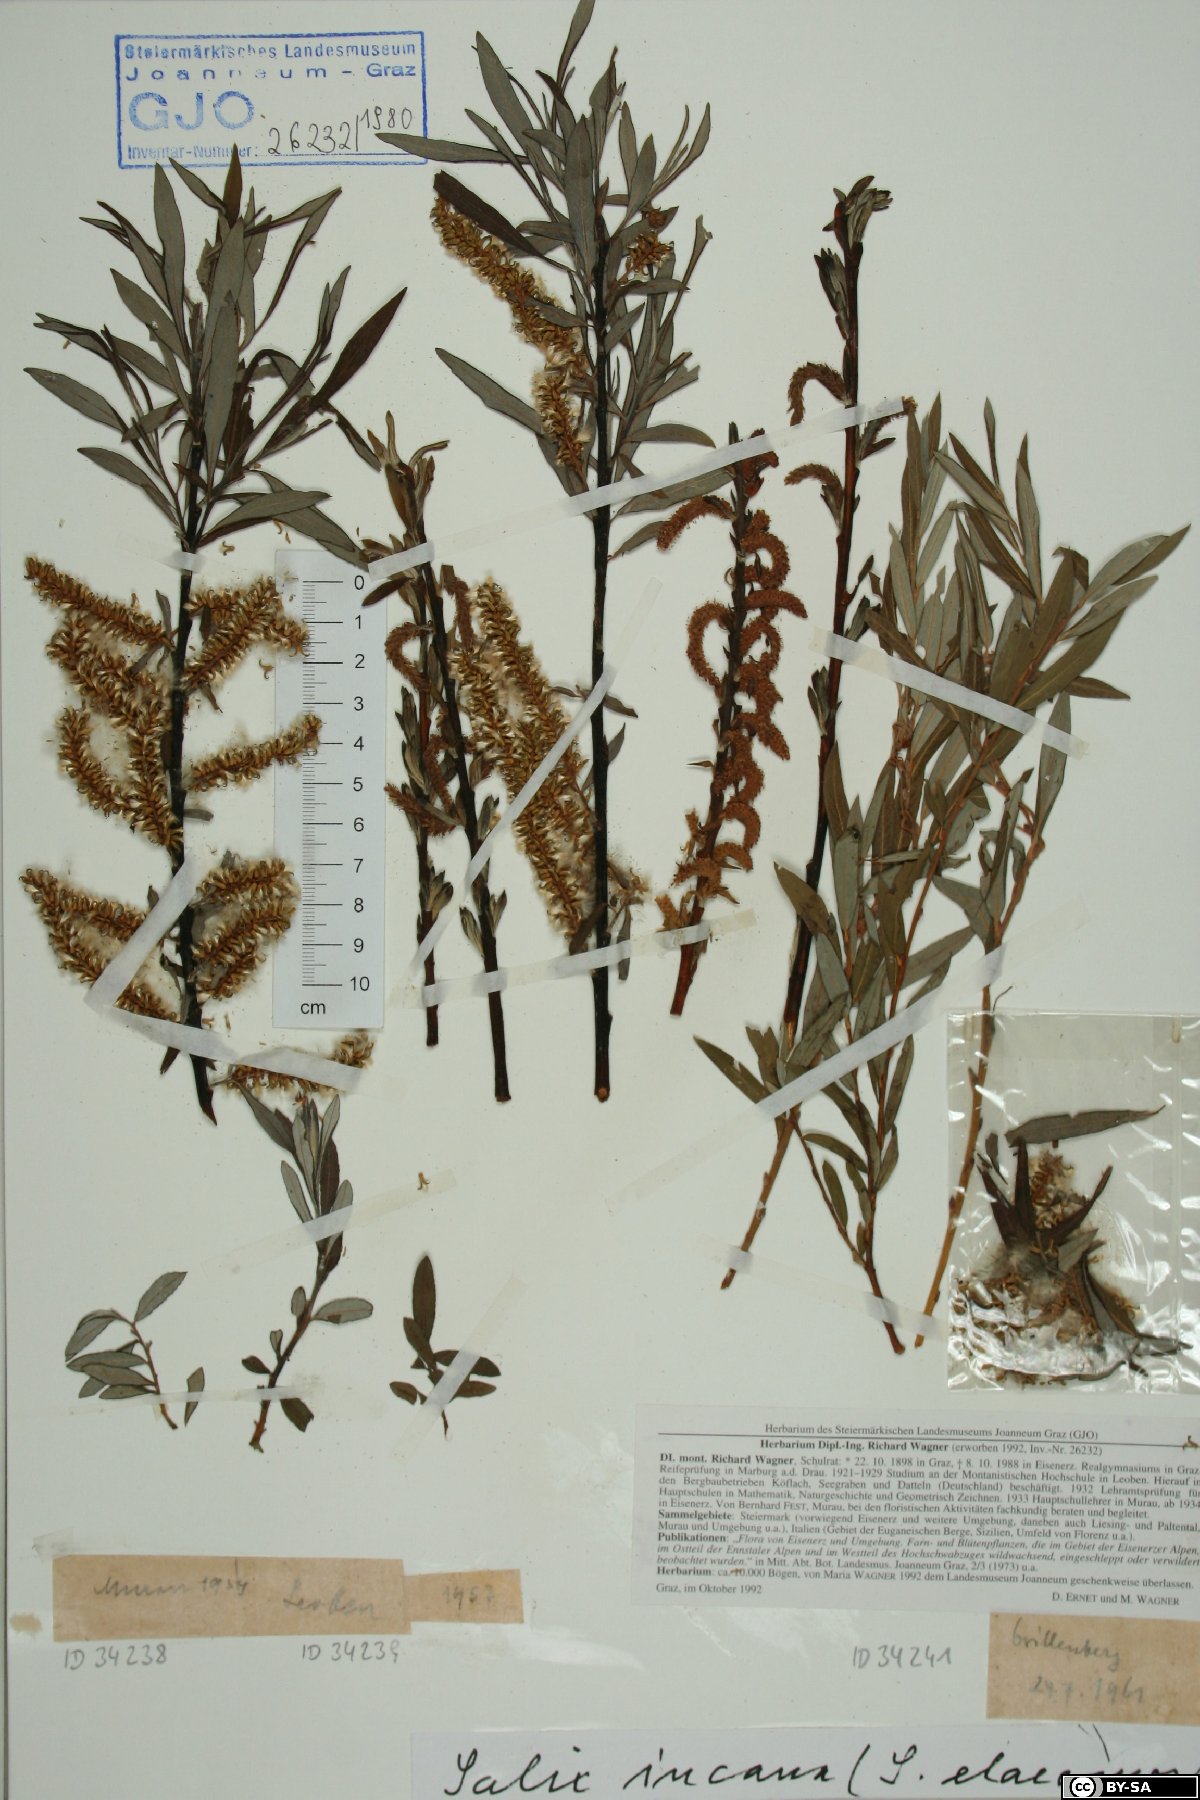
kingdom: Plantae
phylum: Tracheophyta
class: Magnoliopsida
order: Malpighiales
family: Salicaceae
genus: Salix
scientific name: Salix eleagnos
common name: Elaeagnus willow
